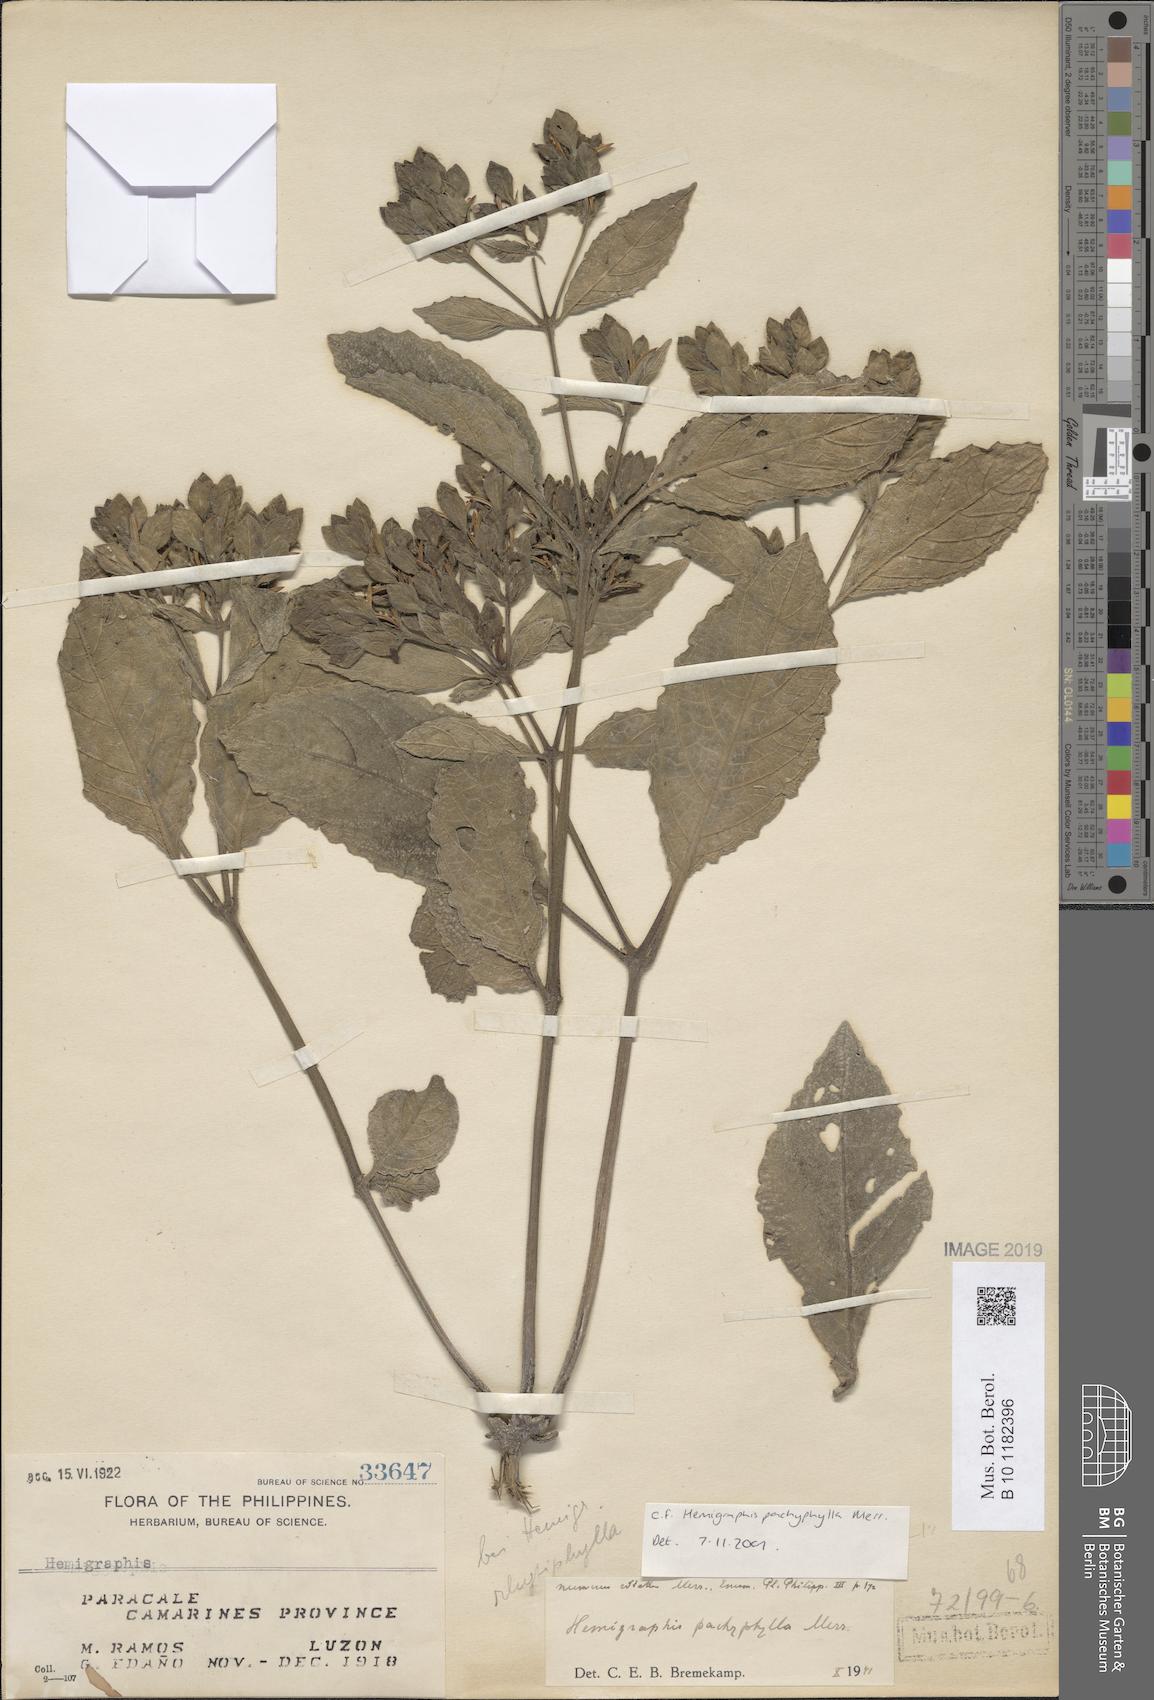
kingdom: Plantae
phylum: Tracheophyta
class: Magnoliopsida
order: Lamiales
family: Acanthaceae
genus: Strobilanthes
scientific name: Strobilanthes bulusanensis
